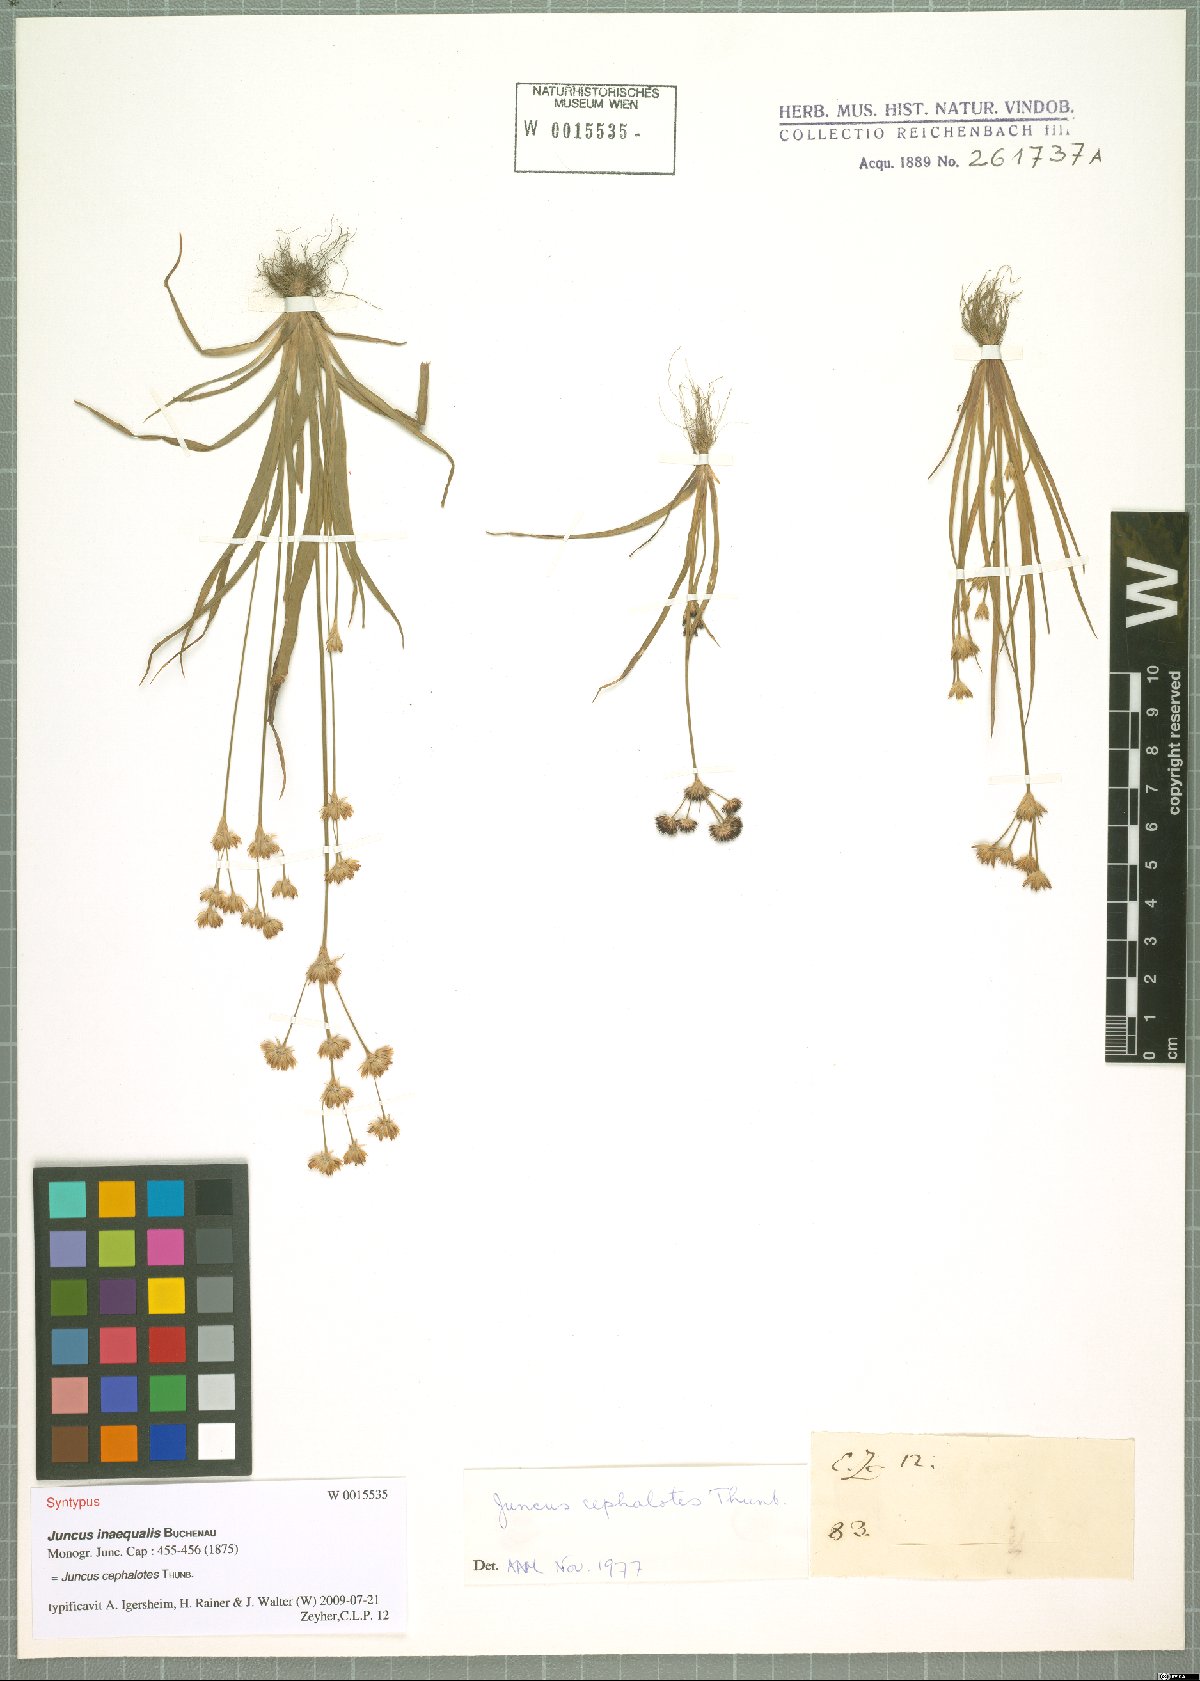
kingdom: Plantae
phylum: Tracheophyta
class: Liliopsida
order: Poales
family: Juncaceae
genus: Juncus
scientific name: Juncus cephalotes
